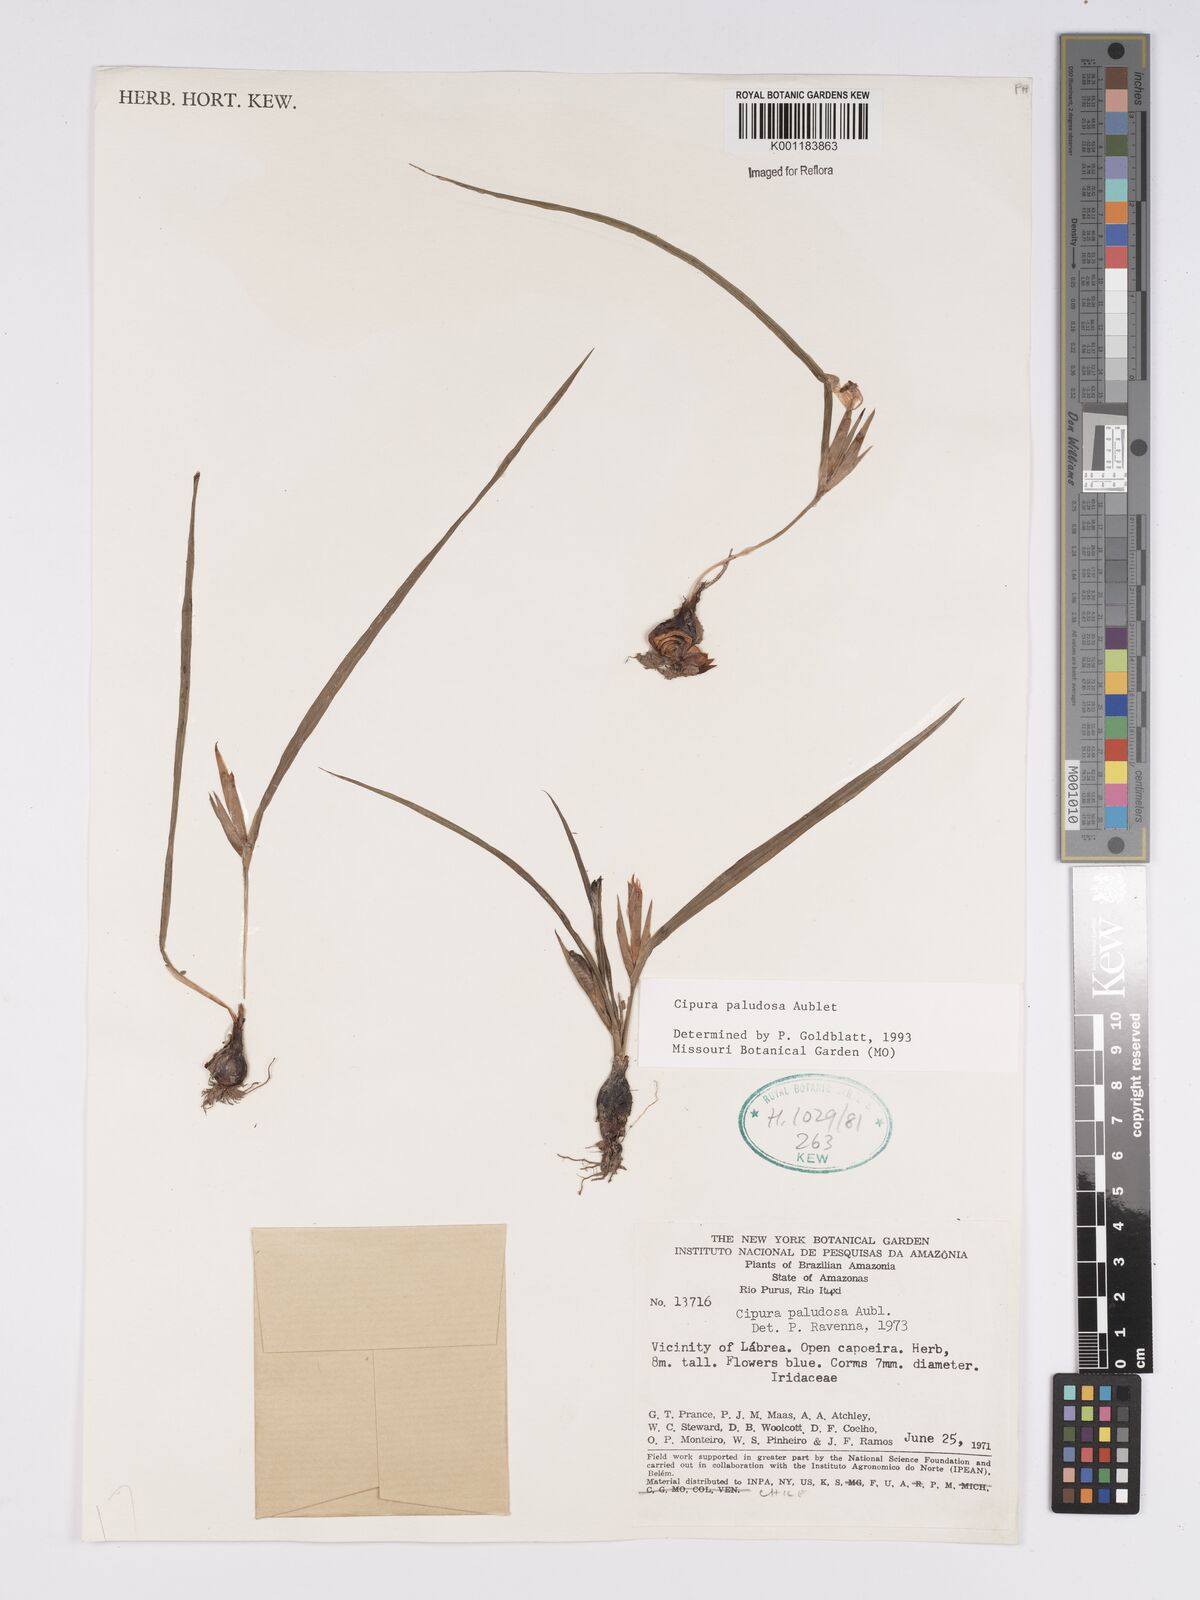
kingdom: Plantae
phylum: Tracheophyta
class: Liliopsida
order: Asparagales
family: Iridaceae
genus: Cipura
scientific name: Cipura paludosa
